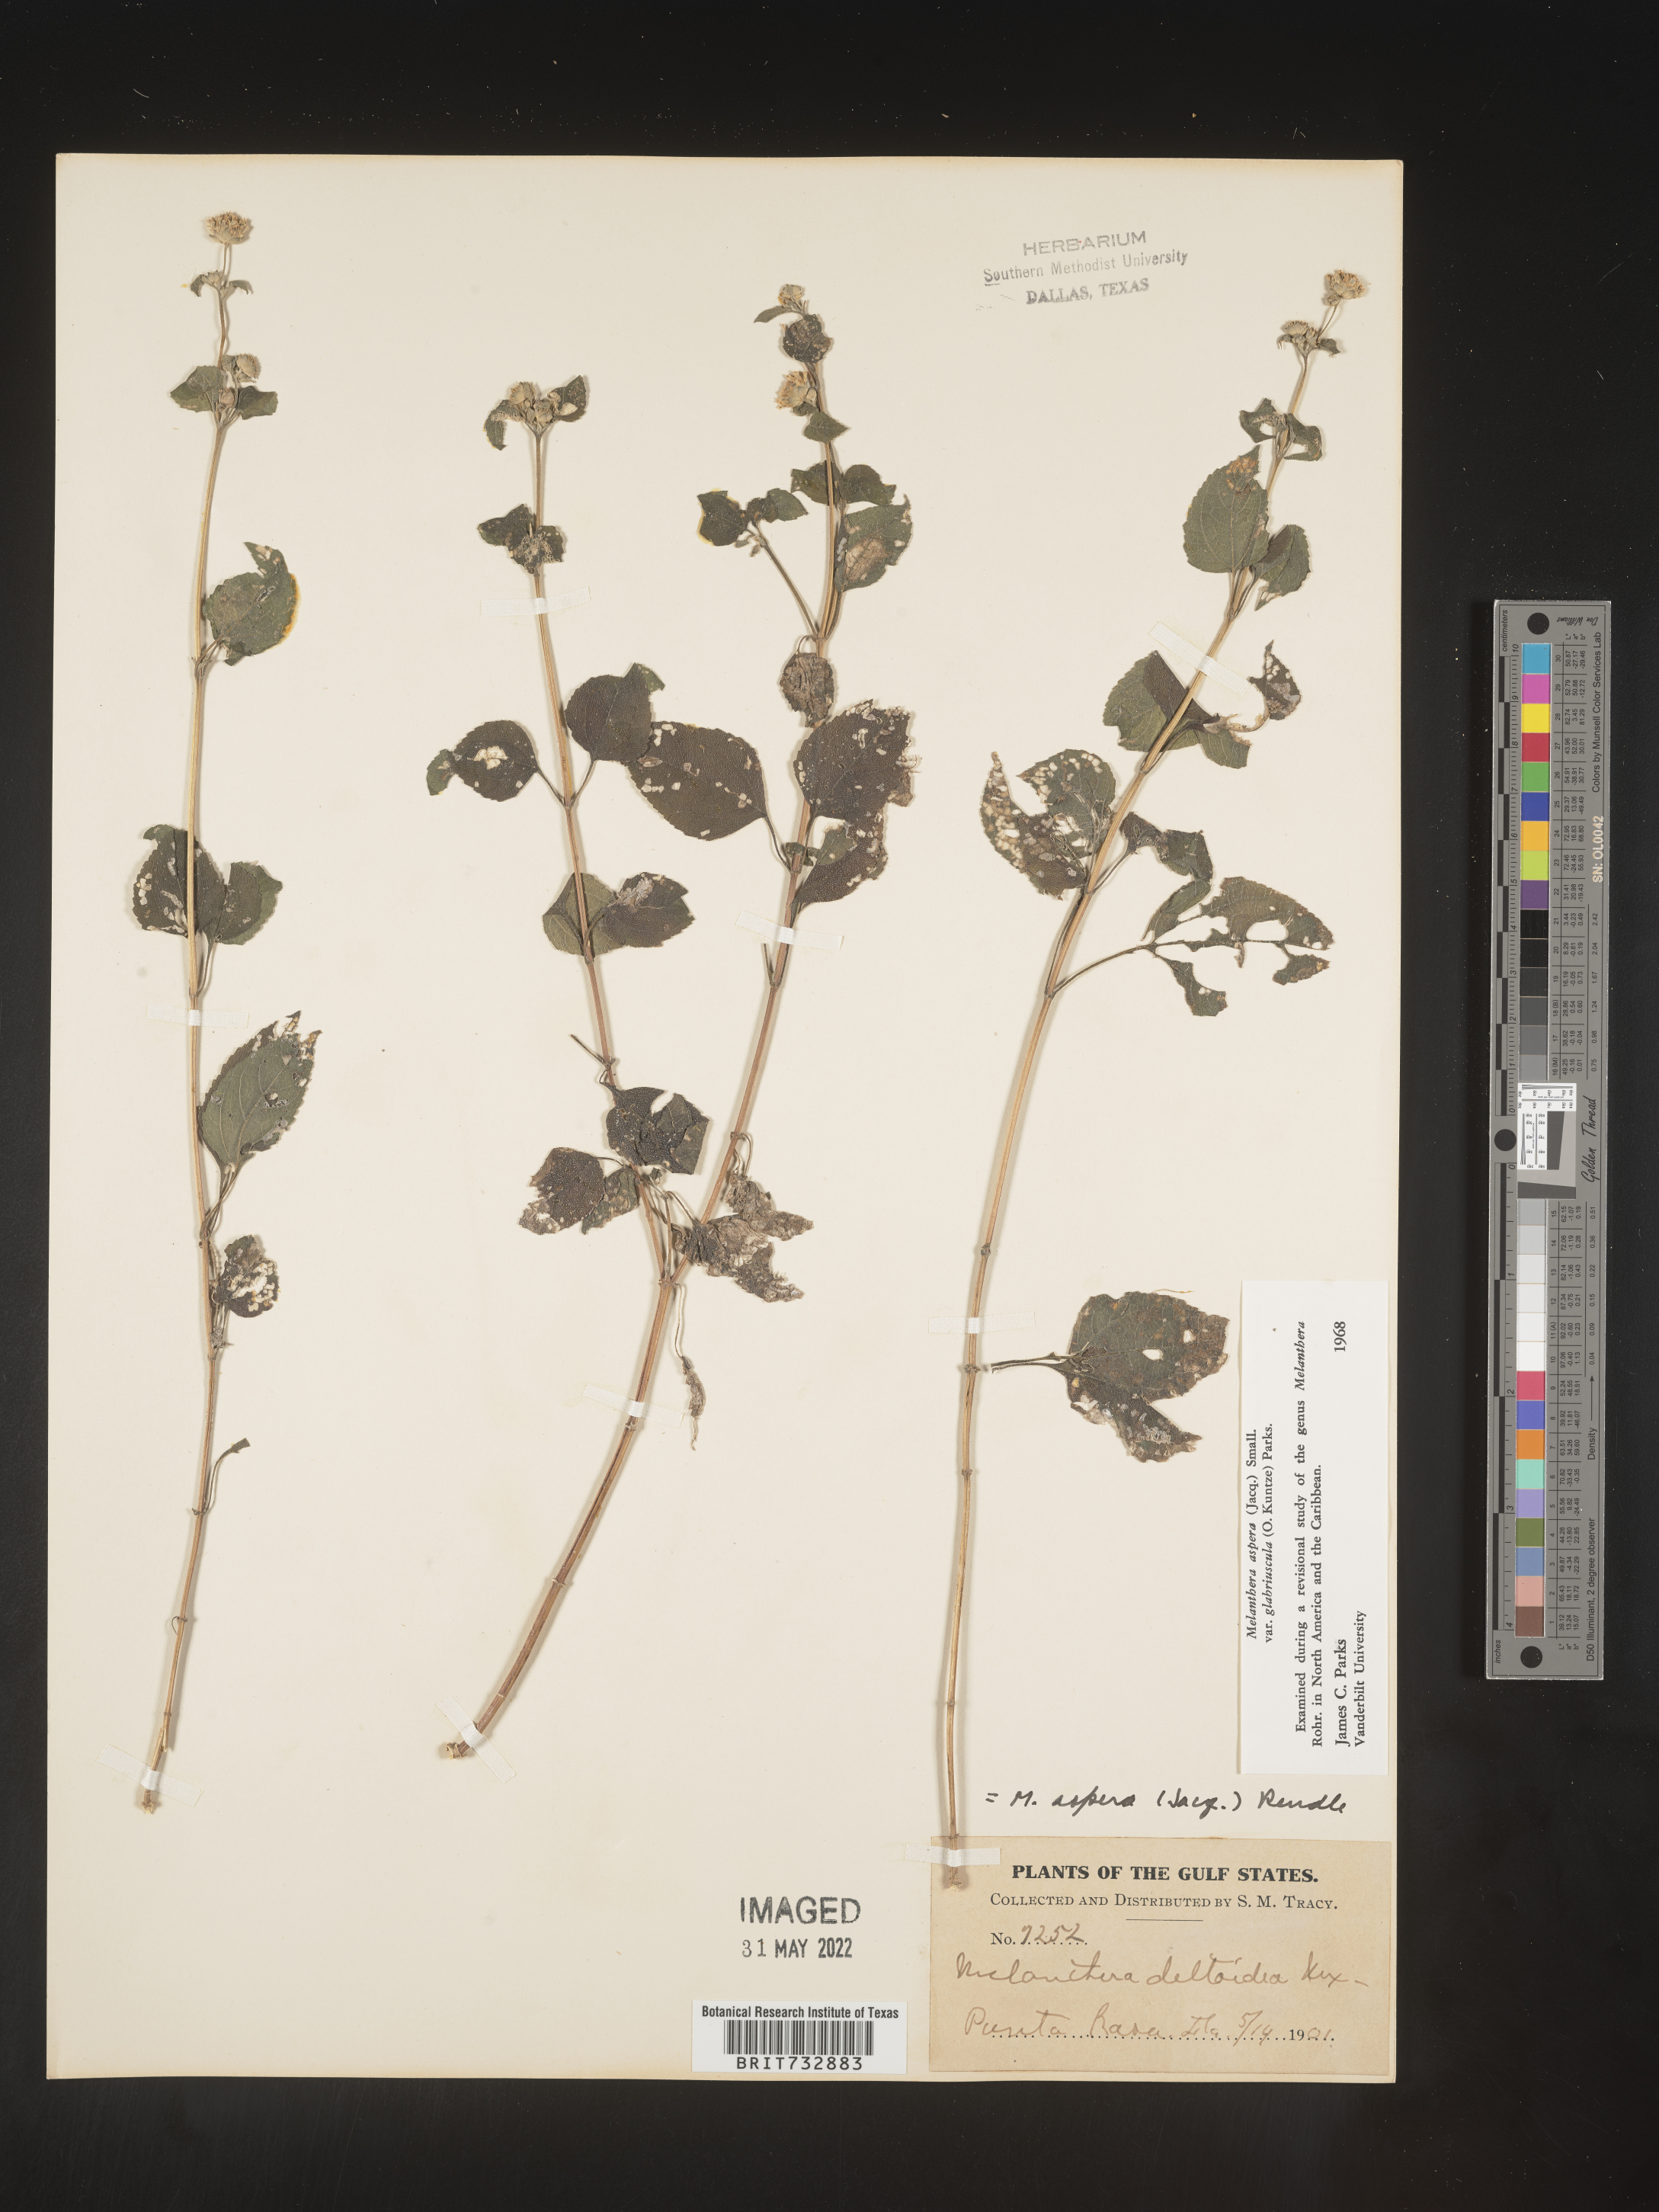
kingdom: Plantae
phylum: Tracheophyta
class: Magnoliopsida
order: Asterales
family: Asteraceae
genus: Melanthera
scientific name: Melanthera nivea
